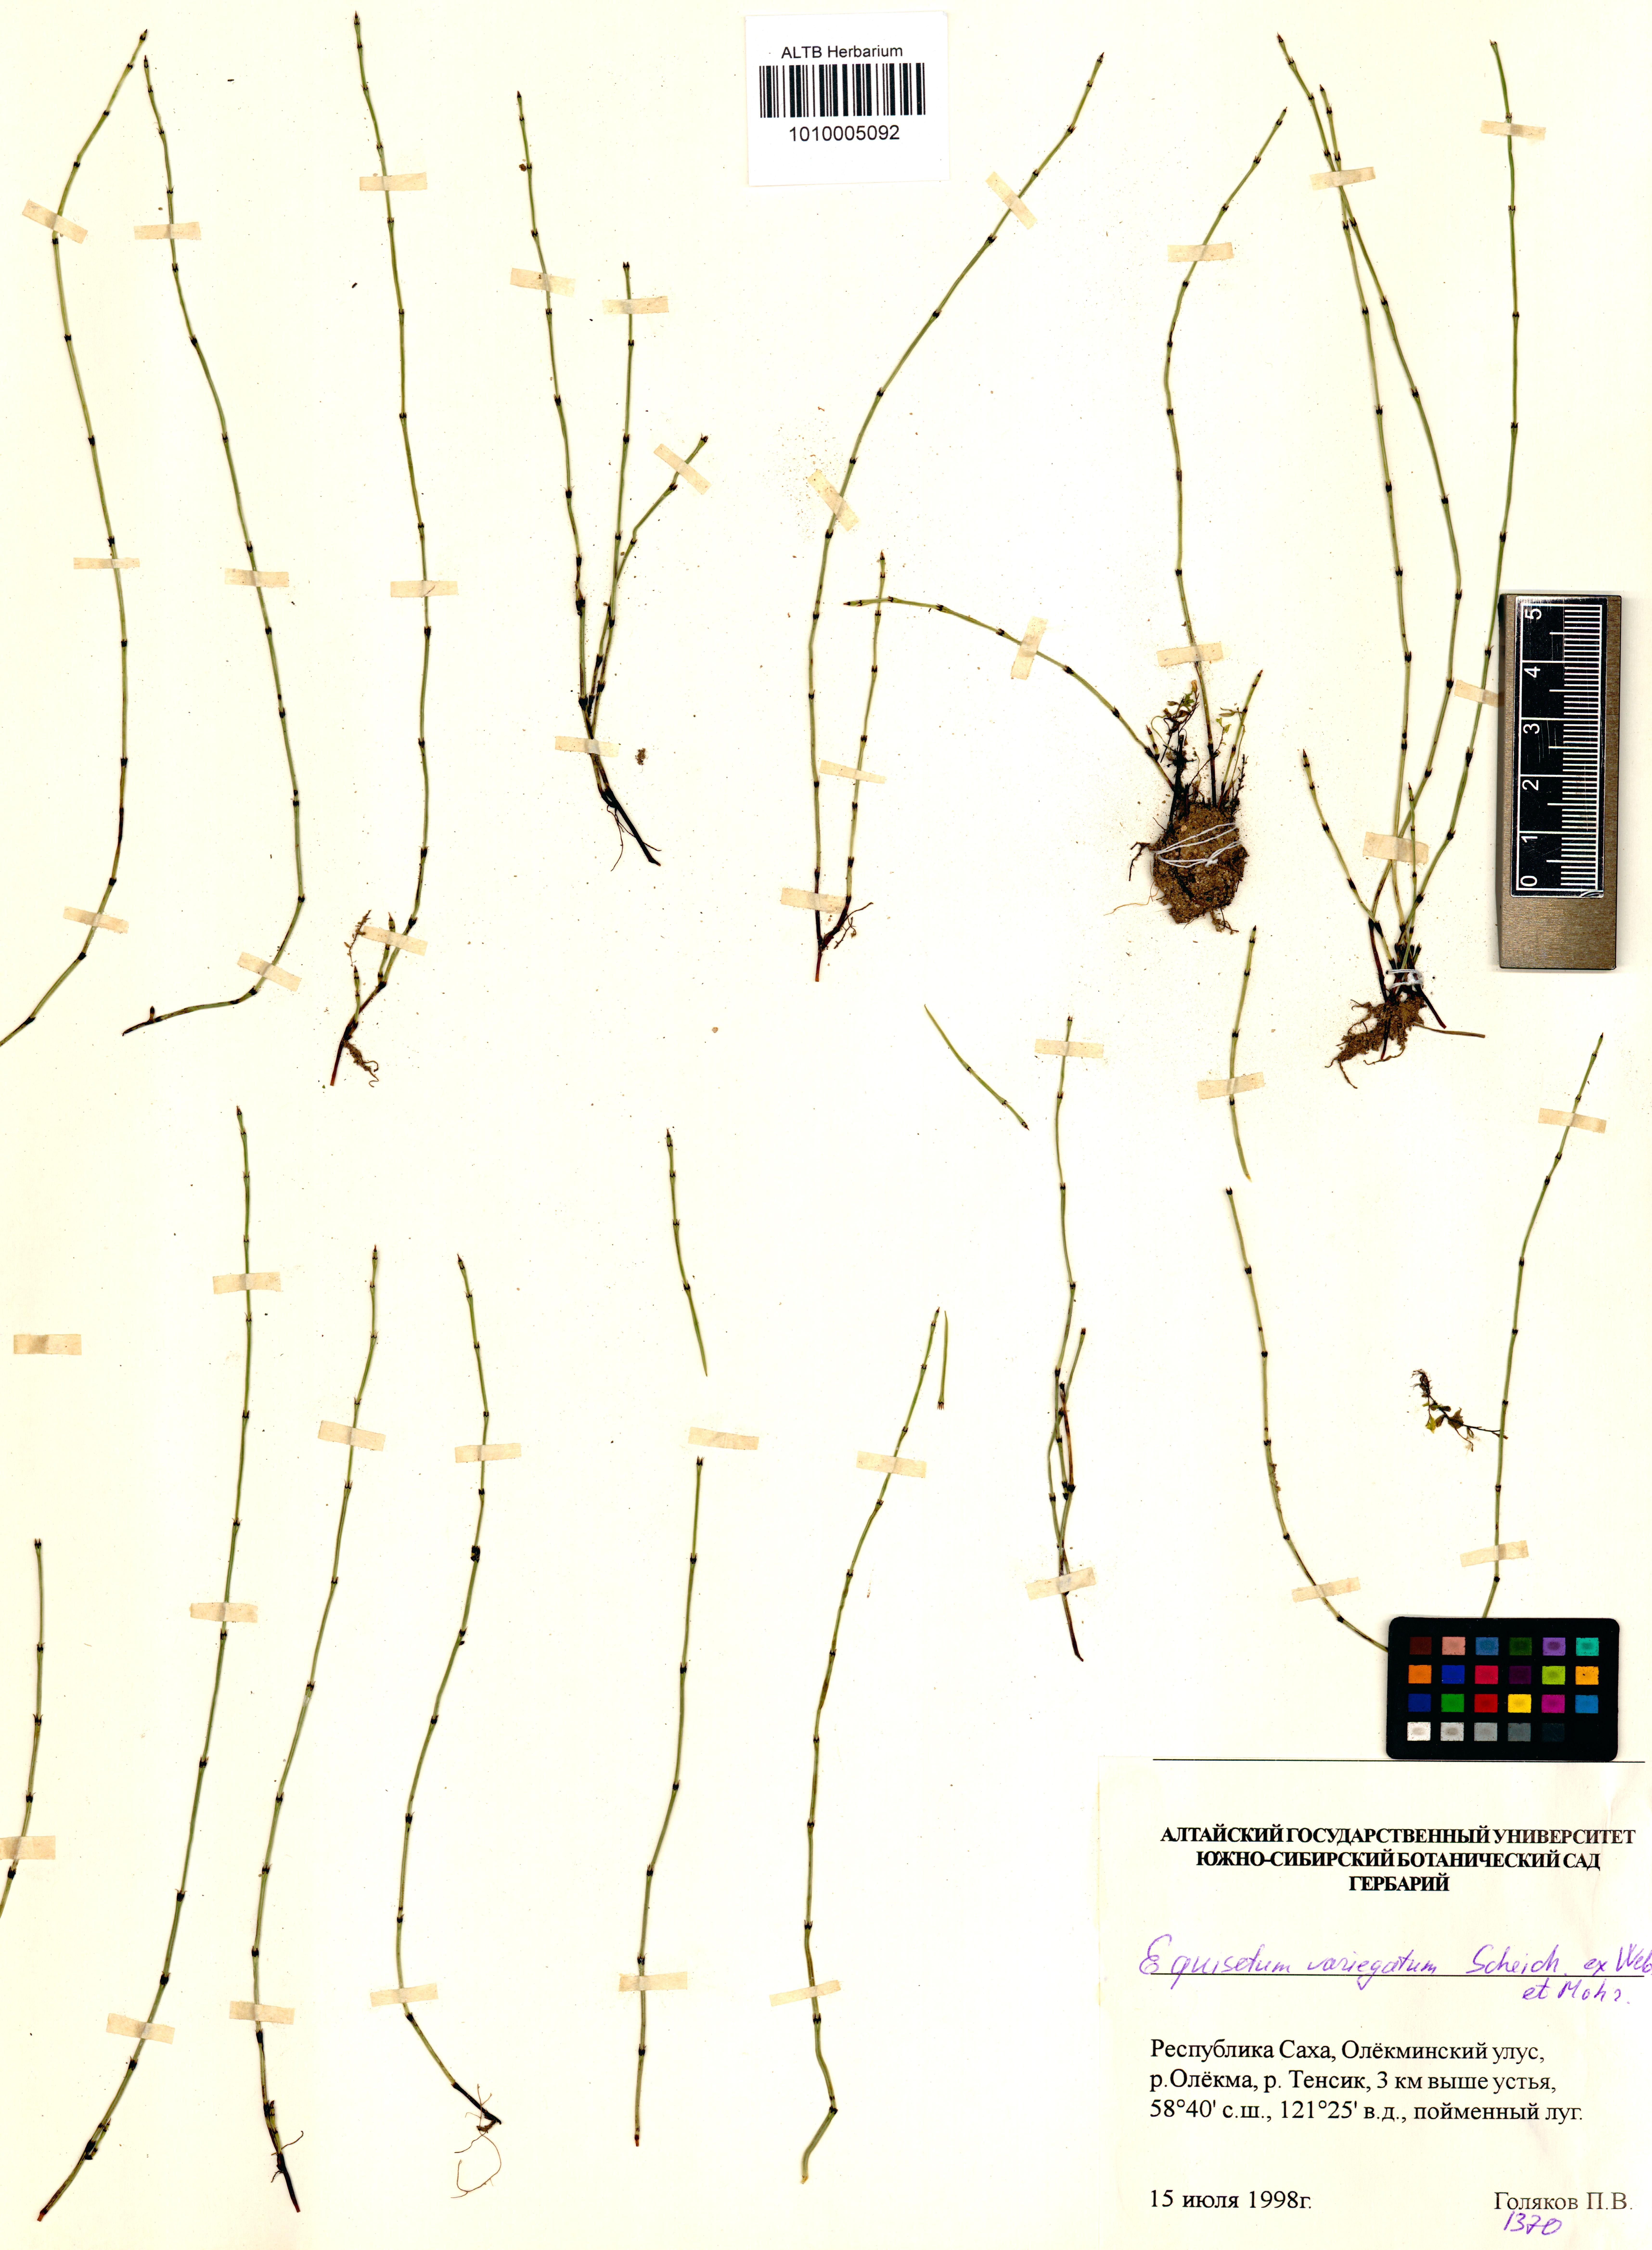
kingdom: Plantae
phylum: Tracheophyta
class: Polypodiopsida
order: Equisetales
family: Equisetaceae
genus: Equisetum
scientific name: Equisetum variegatum
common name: Variegated horsetail
